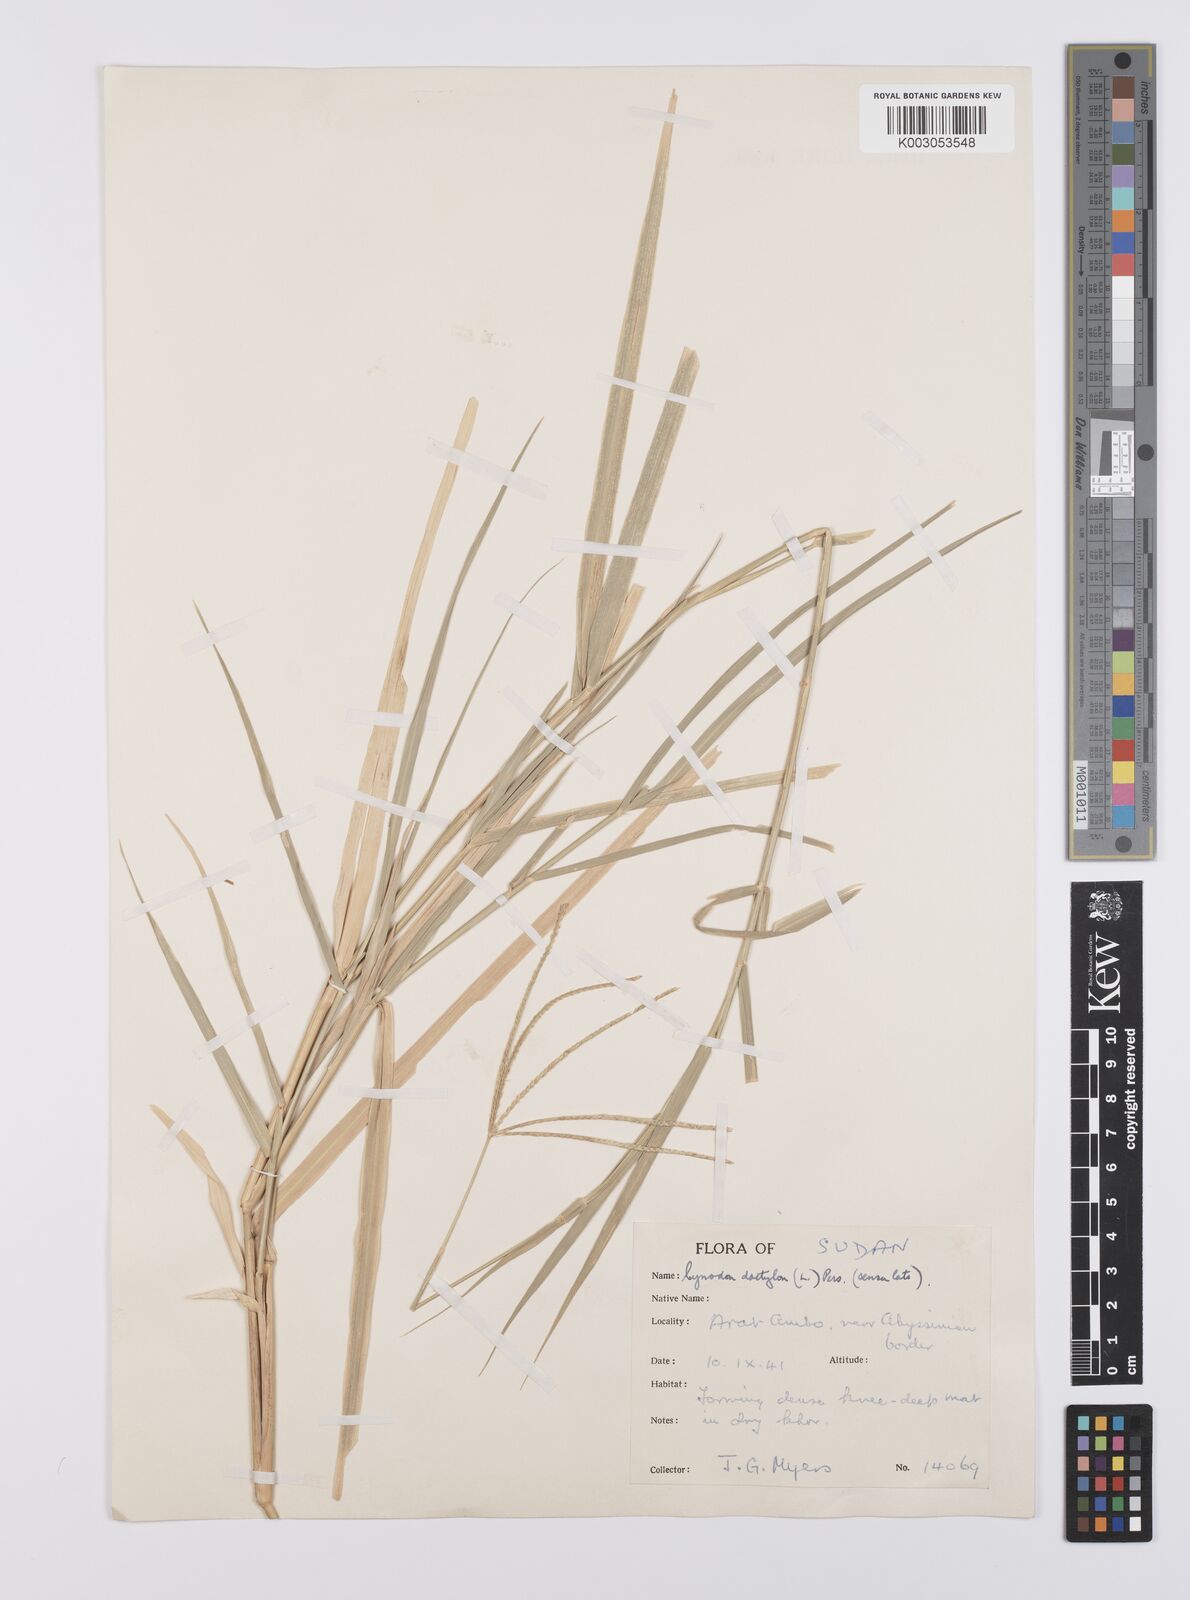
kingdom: Plantae
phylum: Tracheophyta
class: Liliopsida
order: Poales
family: Poaceae
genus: Cynodon
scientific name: Cynodon dactylon
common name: Bermuda grass
